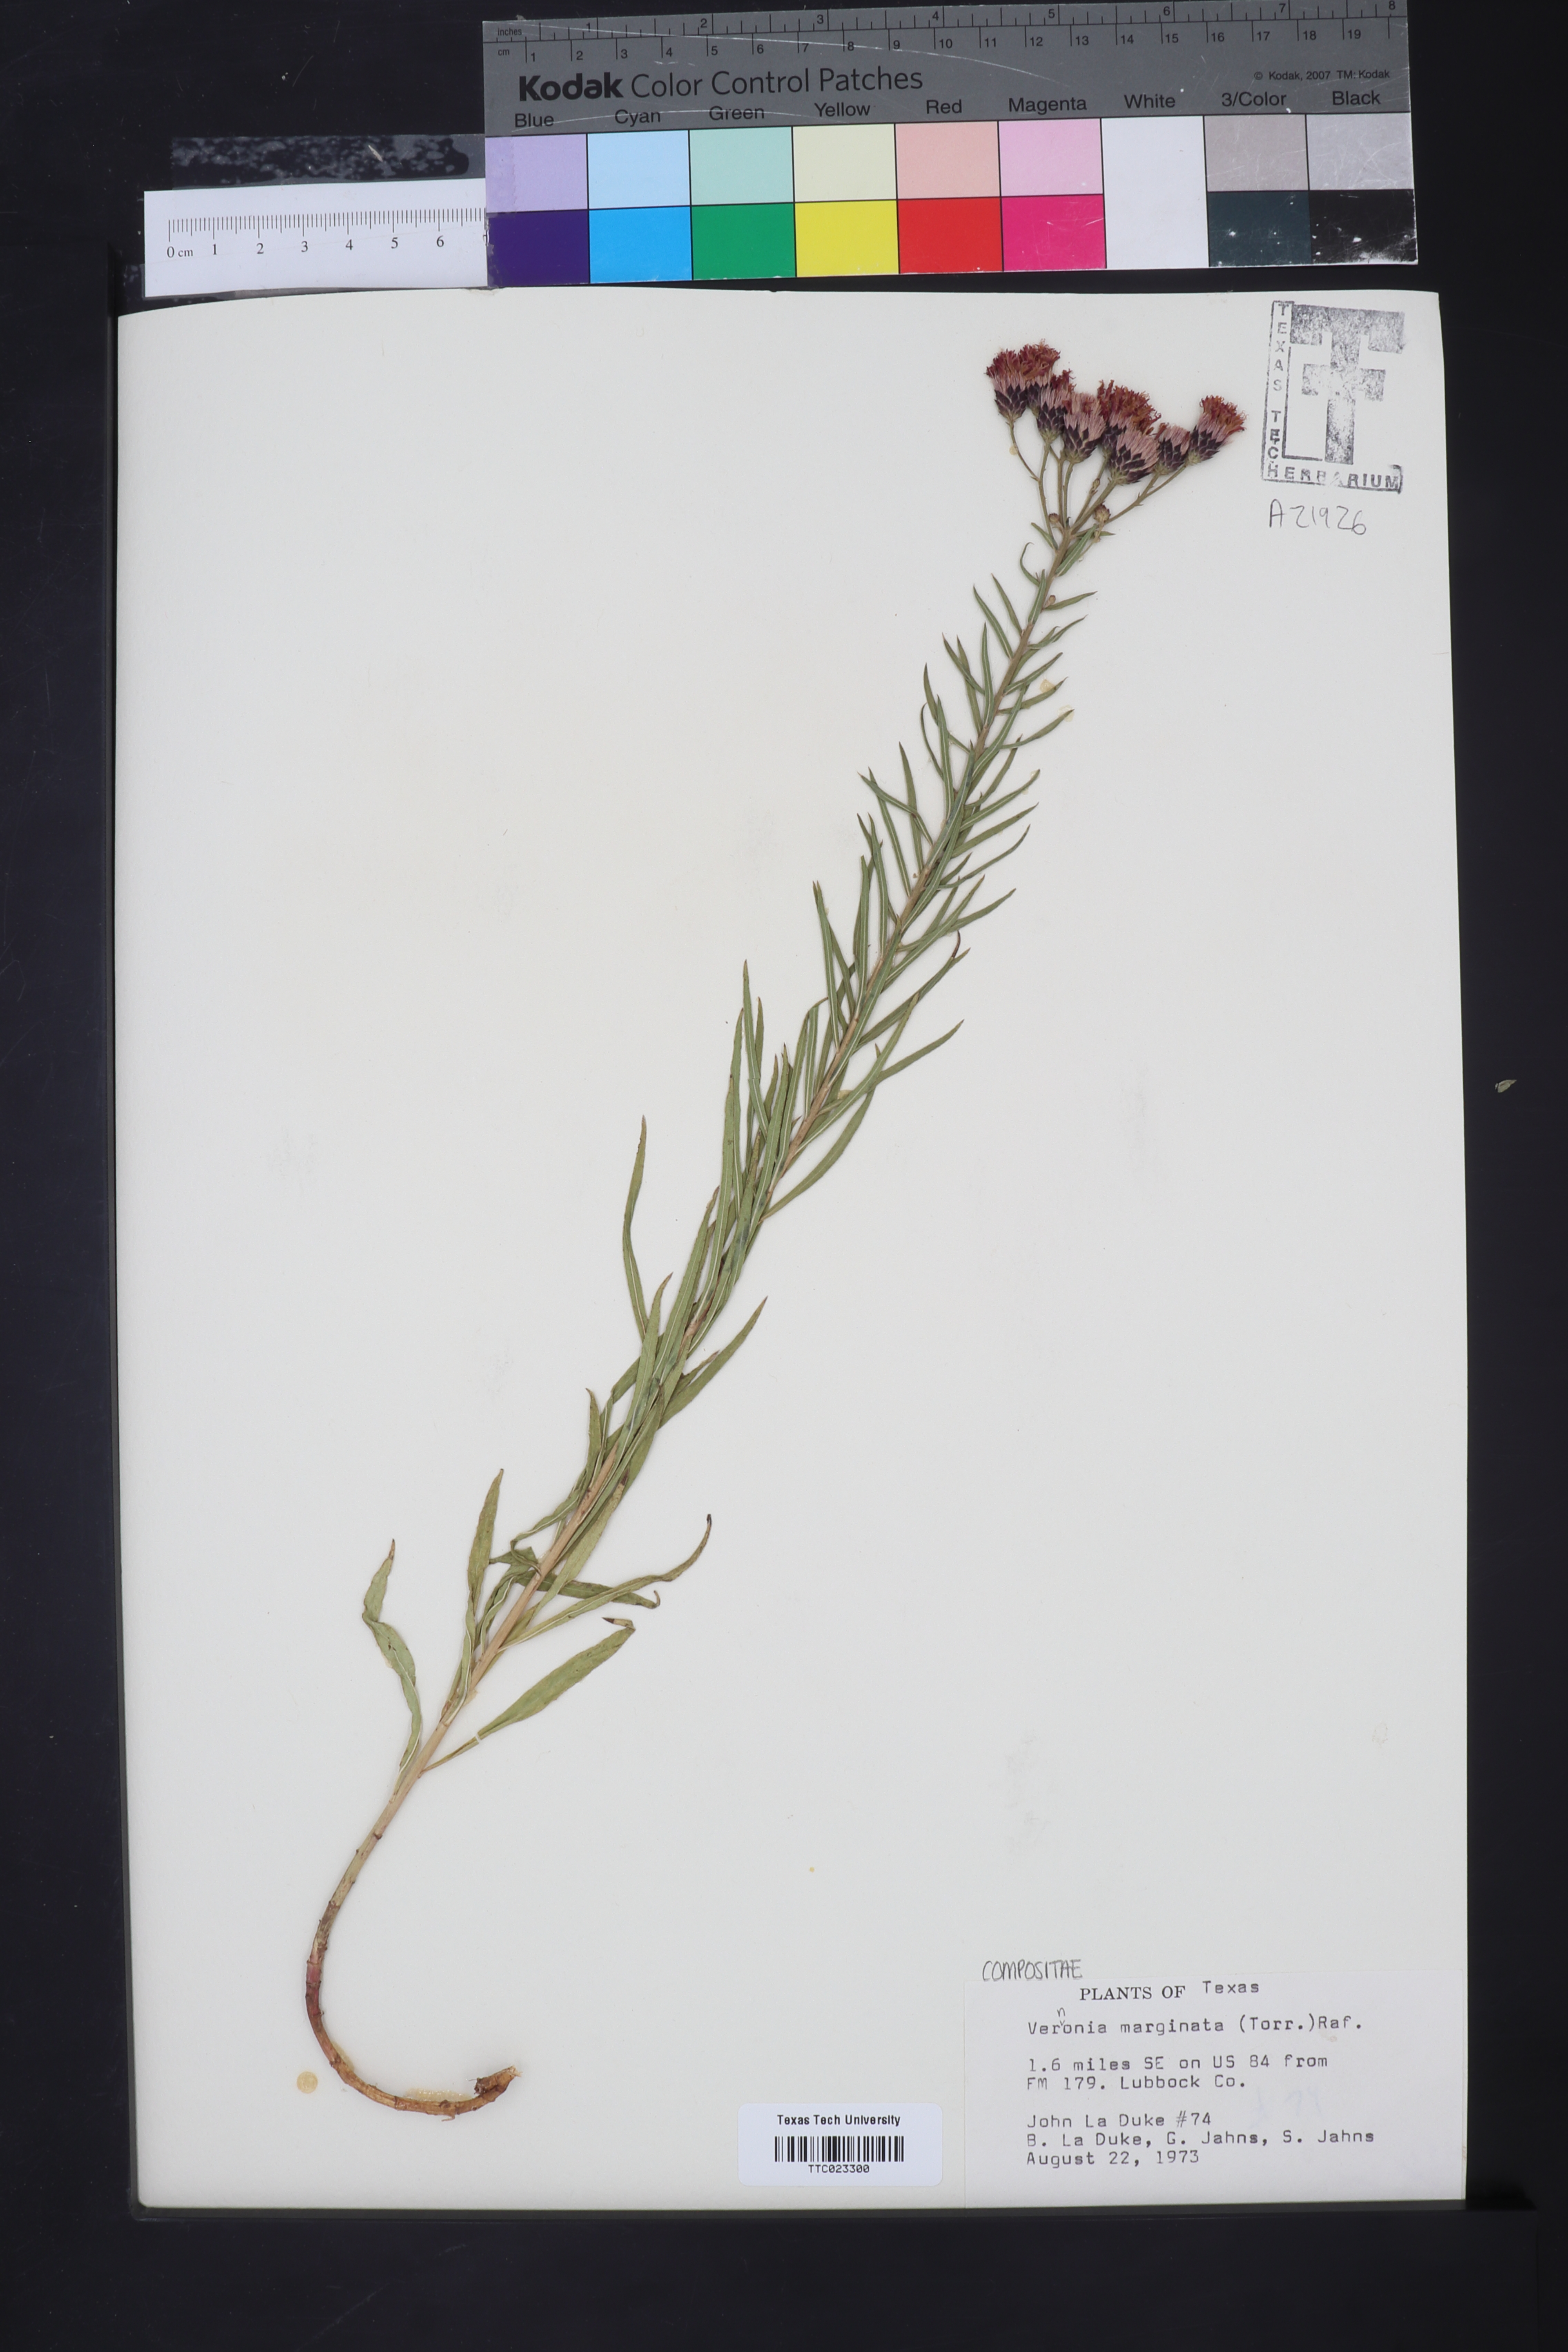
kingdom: Plantae
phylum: Tracheophyta
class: Magnoliopsida
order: Asterales
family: Asteraceae
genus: Vernonia
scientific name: Vernonia marginata
